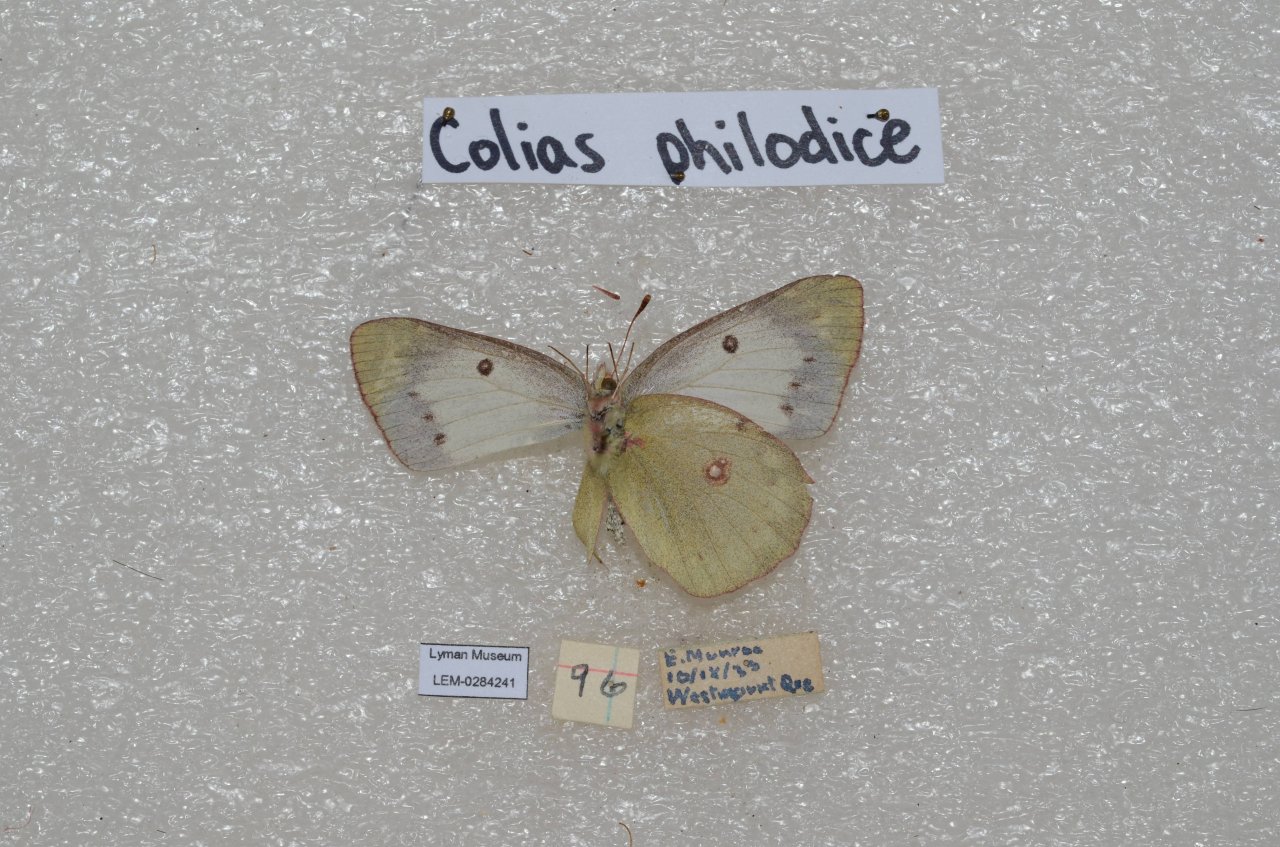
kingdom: Animalia
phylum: Arthropoda
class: Insecta
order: Lepidoptera
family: Pieridae
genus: Colias
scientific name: Colias philodice
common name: Clouded Sulphur
